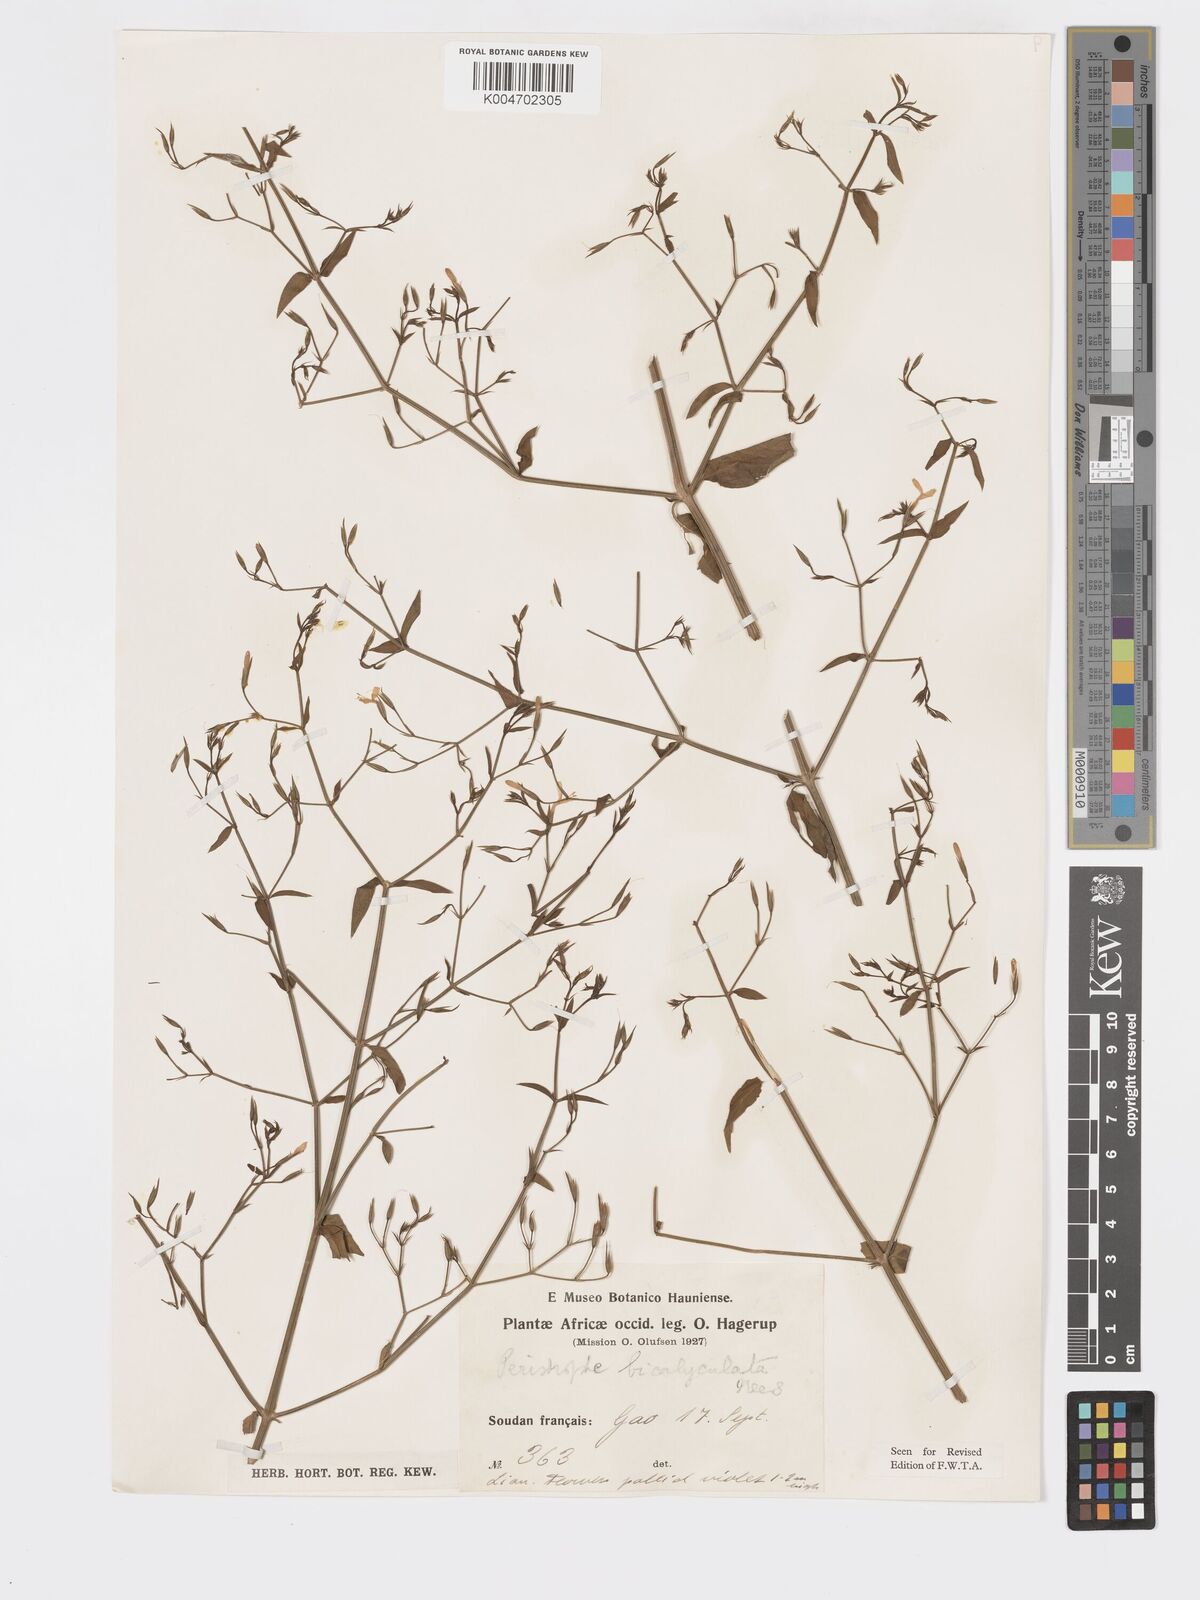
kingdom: Plantae
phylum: Tracheophyta
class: Magnoliopsida
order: Lamiales
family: Acanthaceae
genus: Dicliptera
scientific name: Dicliptera paniculata
